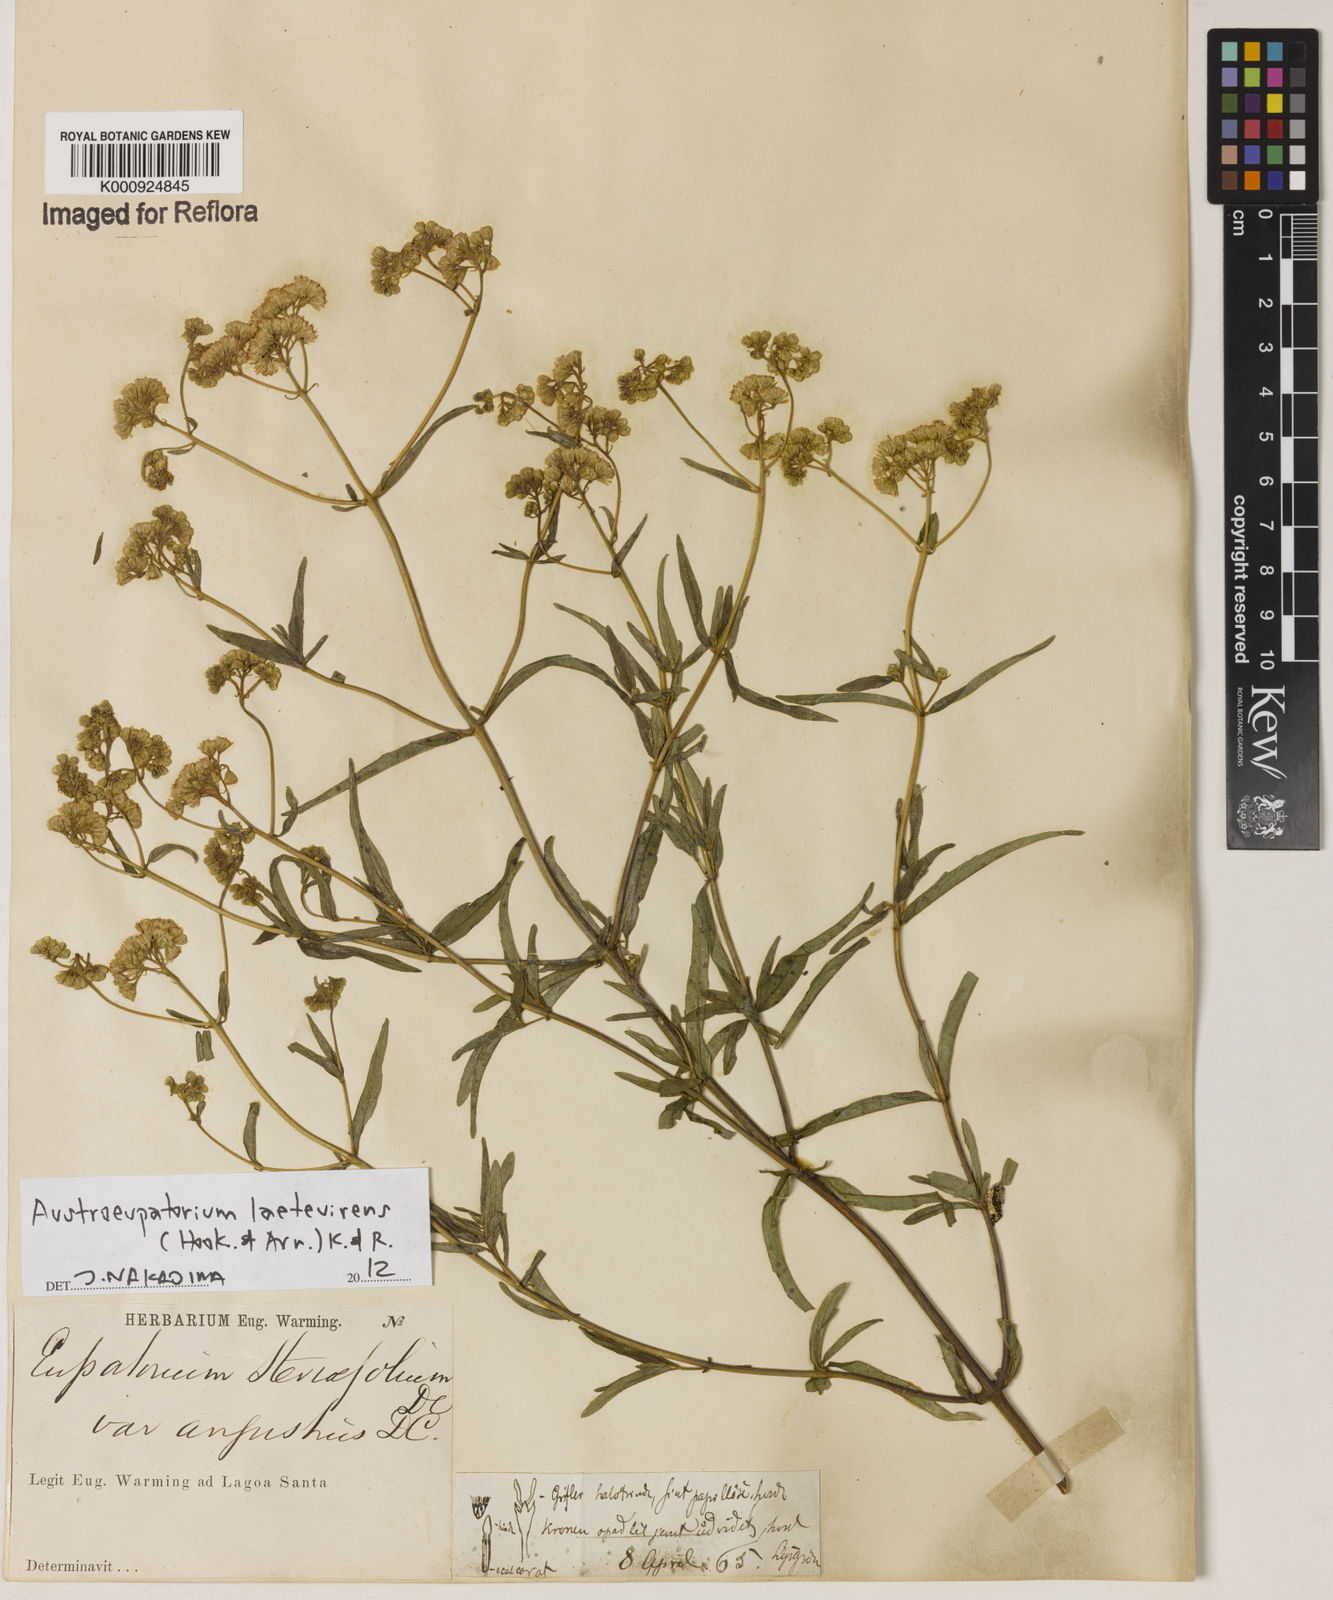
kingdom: Plantae
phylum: Tracheophyta
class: Magnoliopsida
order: Asterales
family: Asteraceae
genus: Austroeupatorium
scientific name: Austroeupatorium laetevirens
